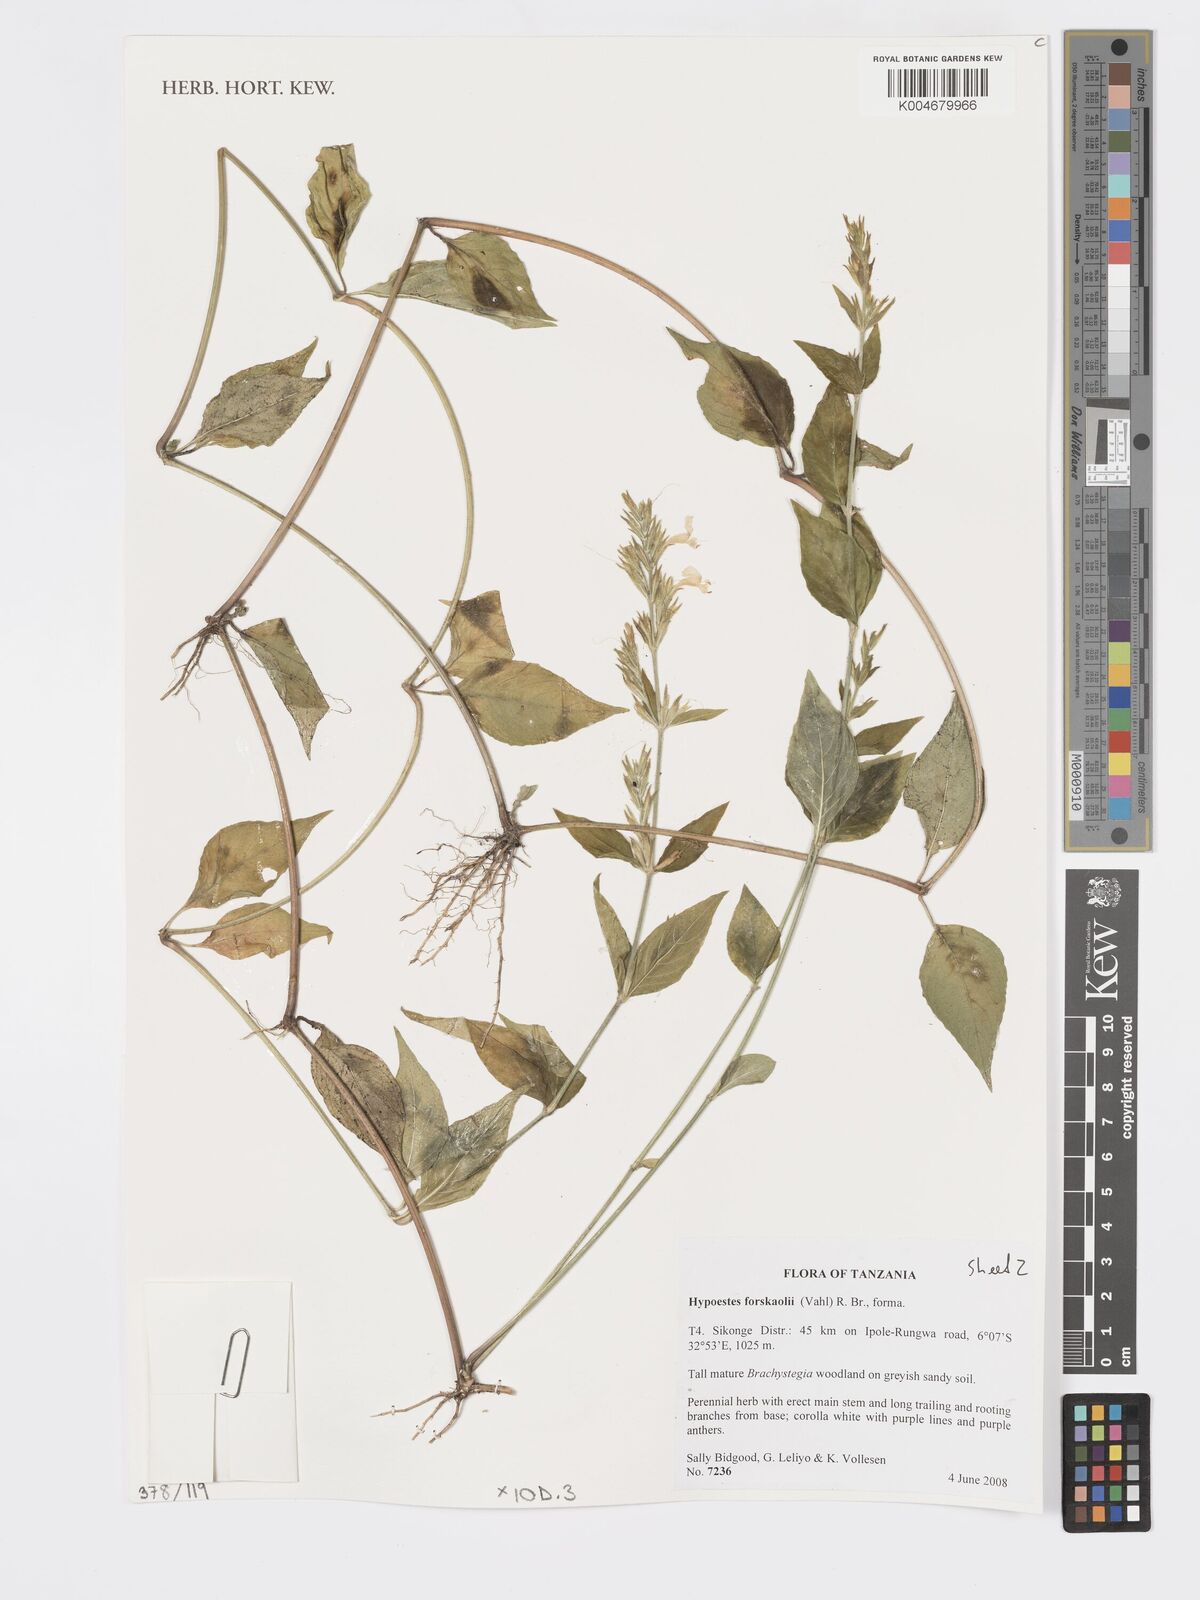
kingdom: Plantae
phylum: Tracheophyta
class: Magnoliopsida
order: Lamiales
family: Acanthaceae
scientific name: Acanthaceae
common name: Acanthaceae
